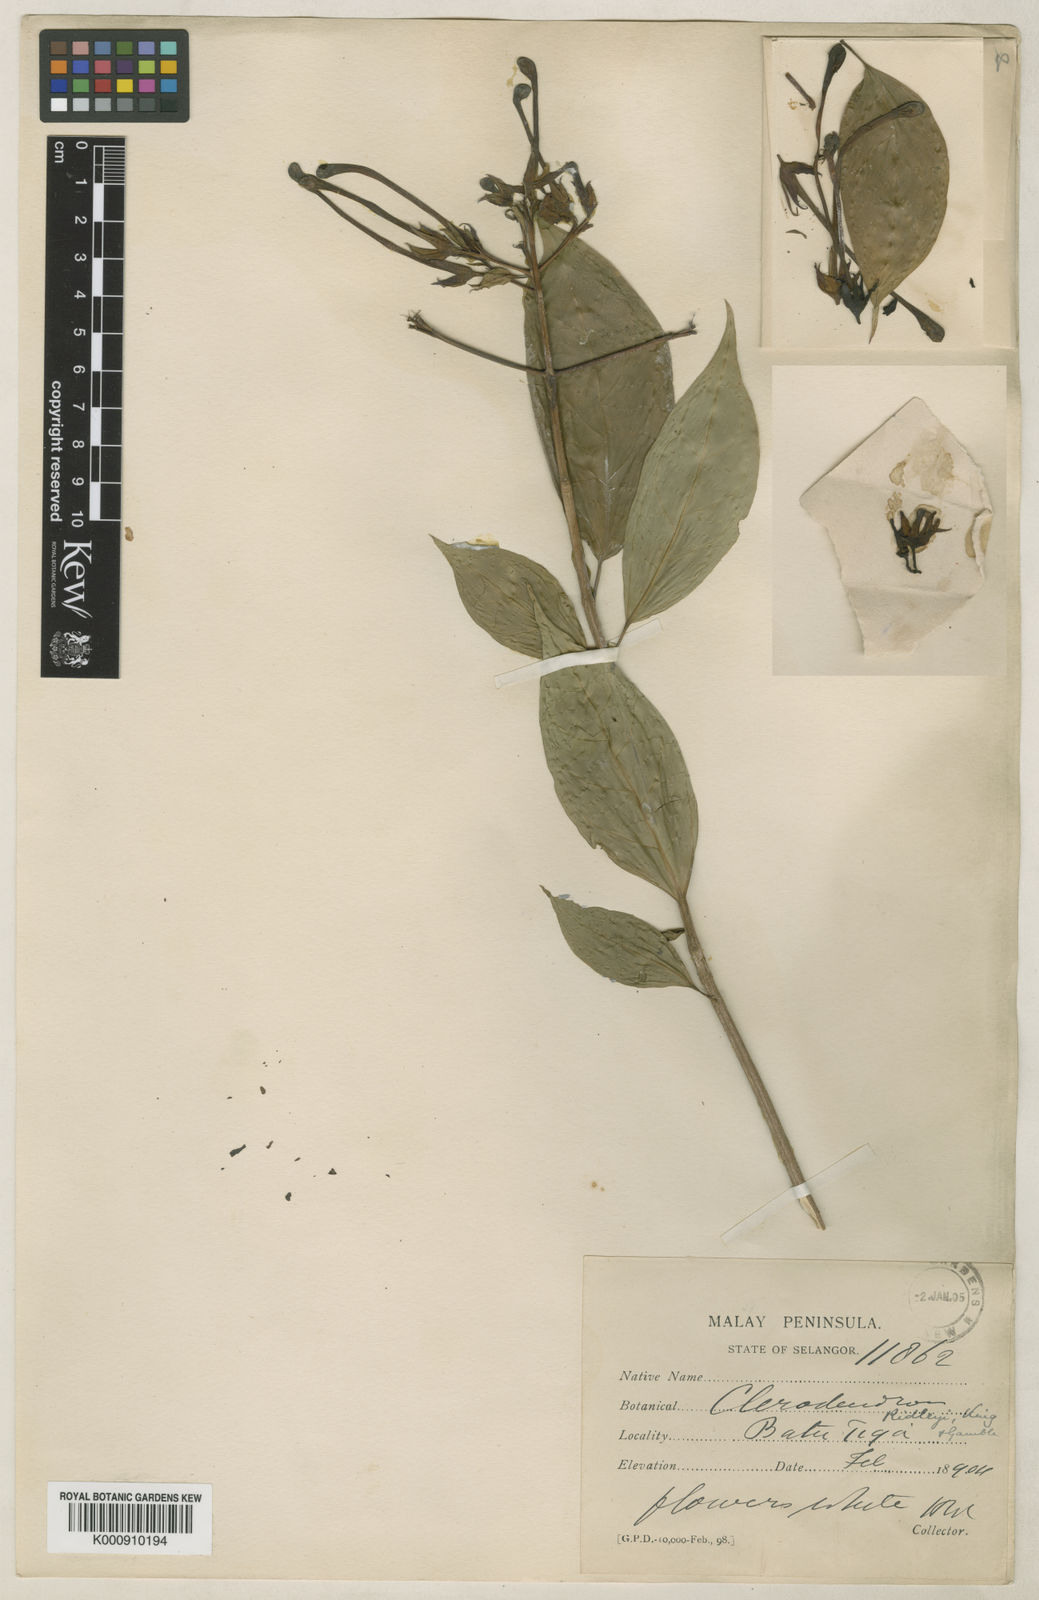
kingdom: Plantae
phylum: Tracheophyta
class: Magnoliopsida
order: Lamiales
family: Lamiaceae
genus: Clerodendrum
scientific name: Clerodendrum ridleyi
